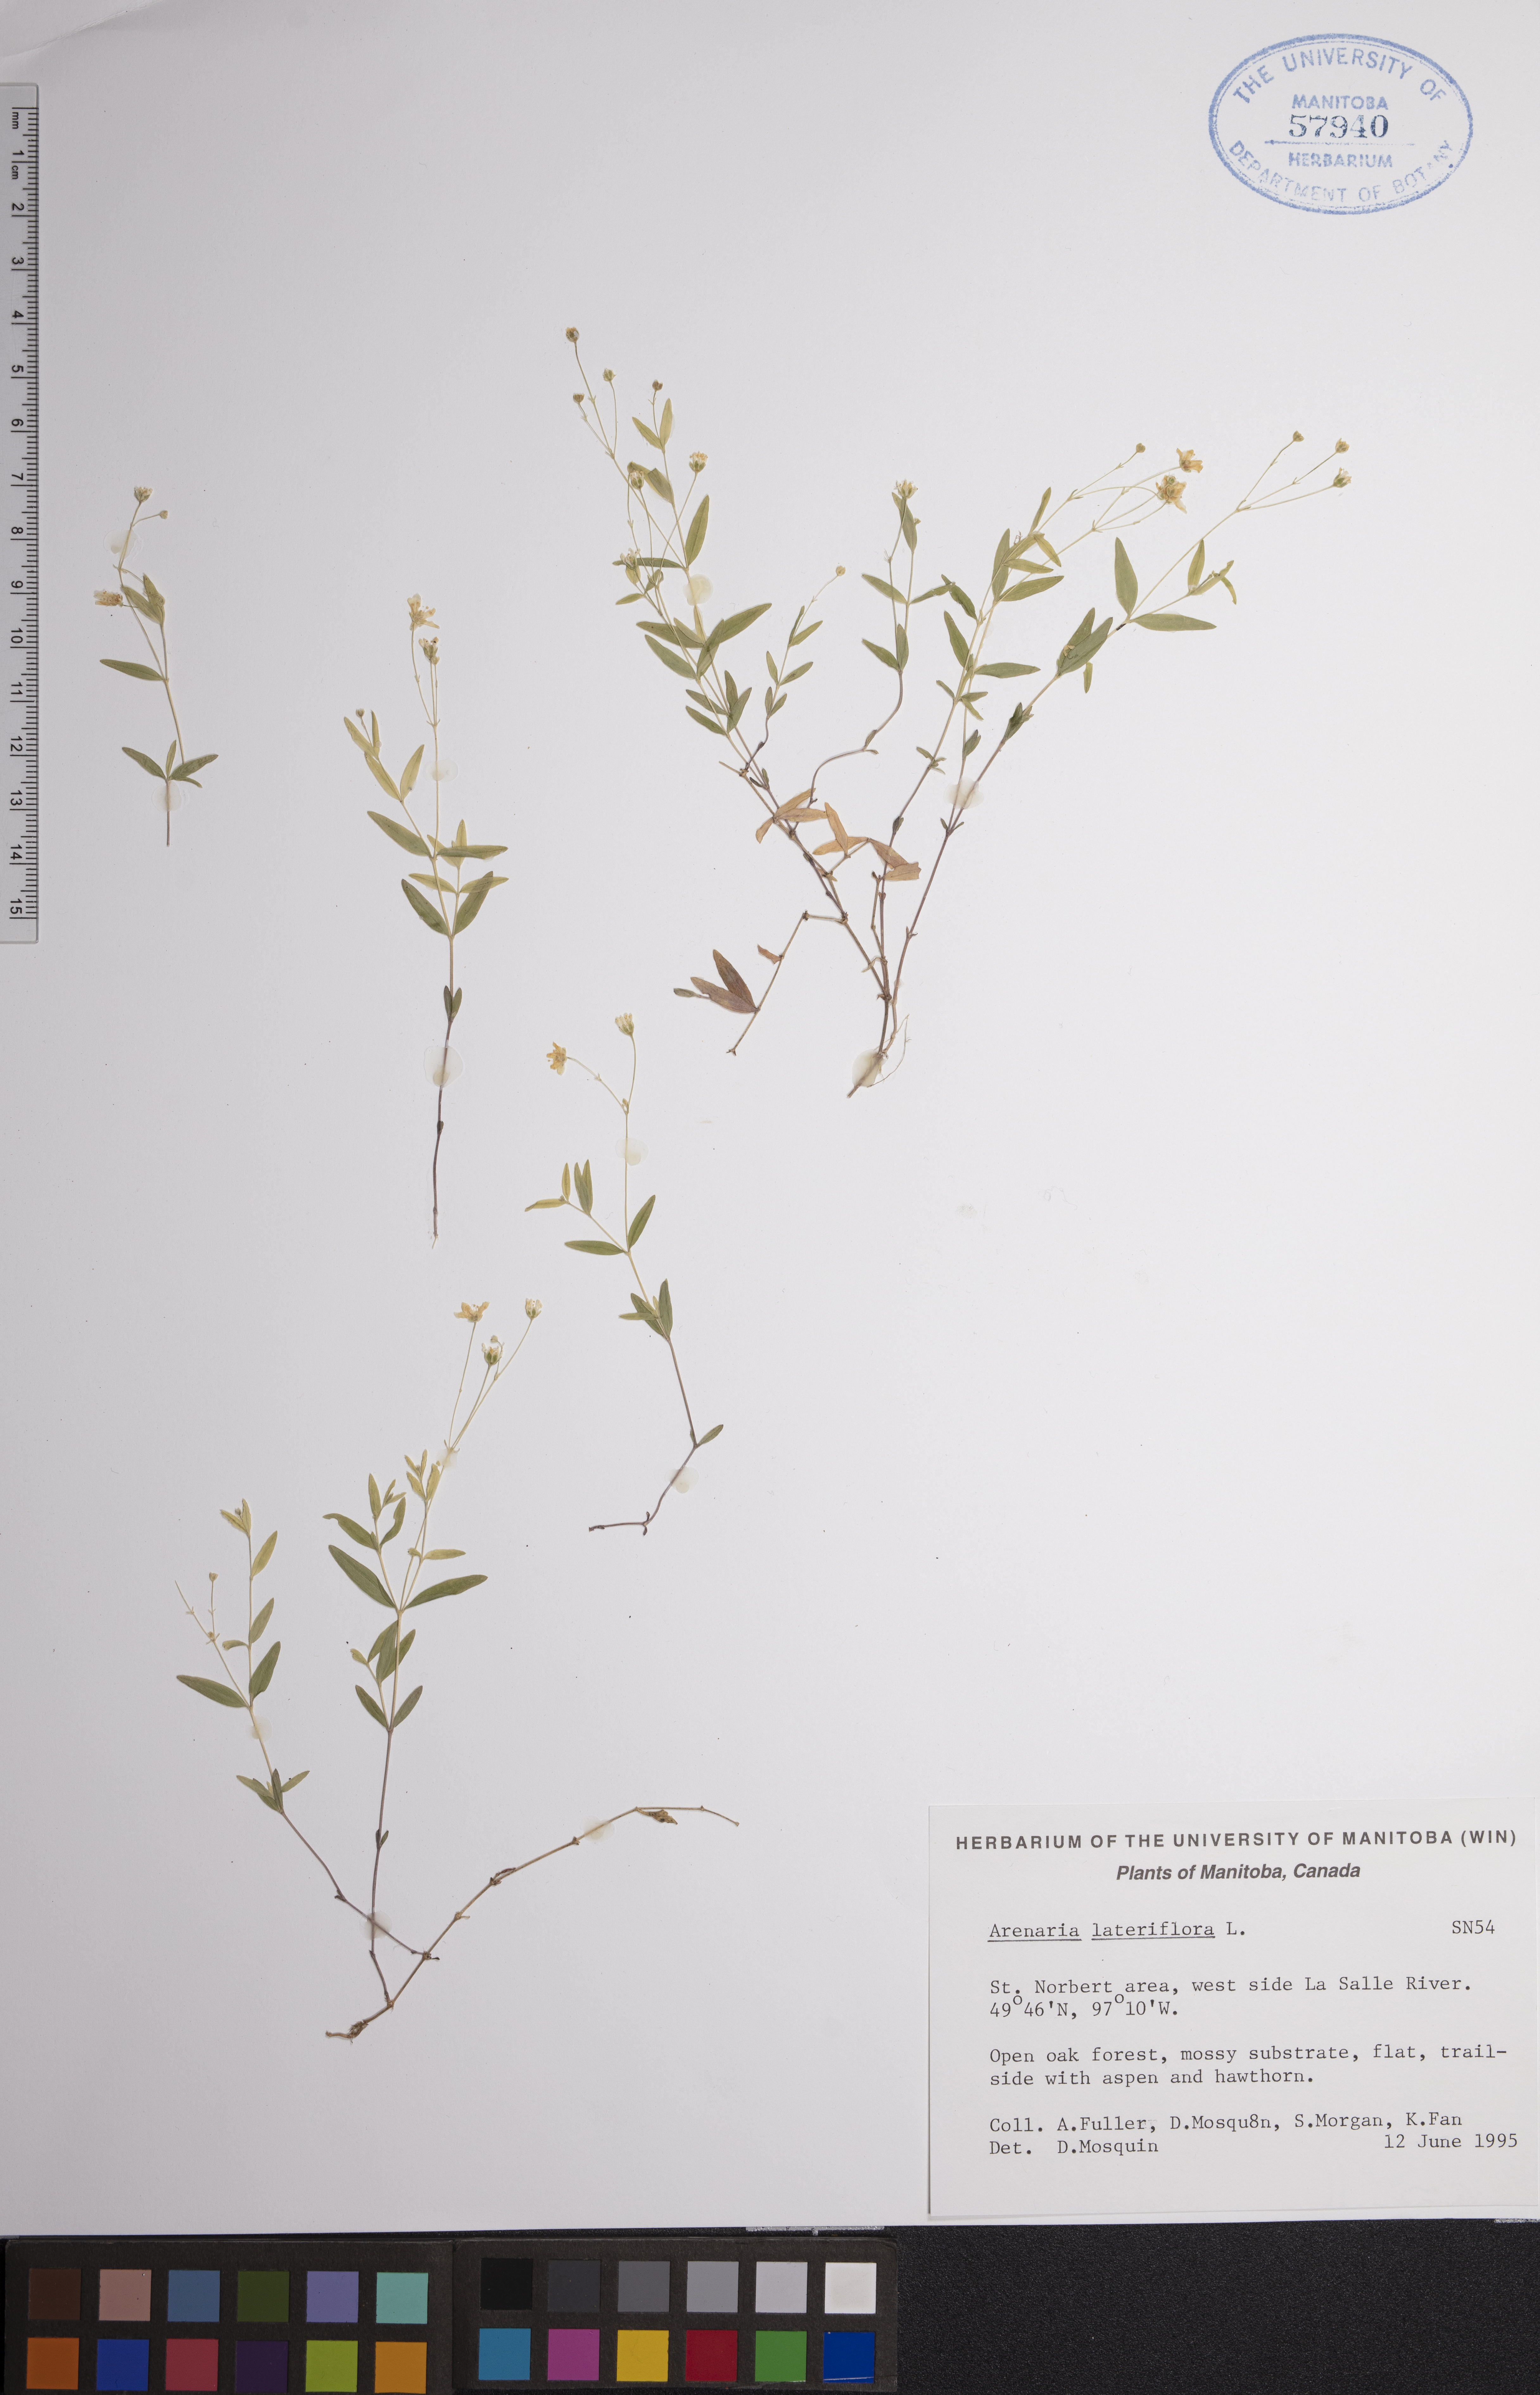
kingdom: Plantae
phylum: Tracheophyta
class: Magnoliopsida
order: Caryophyllales
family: Caryophyllaceae
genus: Moehringia
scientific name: Moehringia lateriflora
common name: Blunt-leaved sandwort
